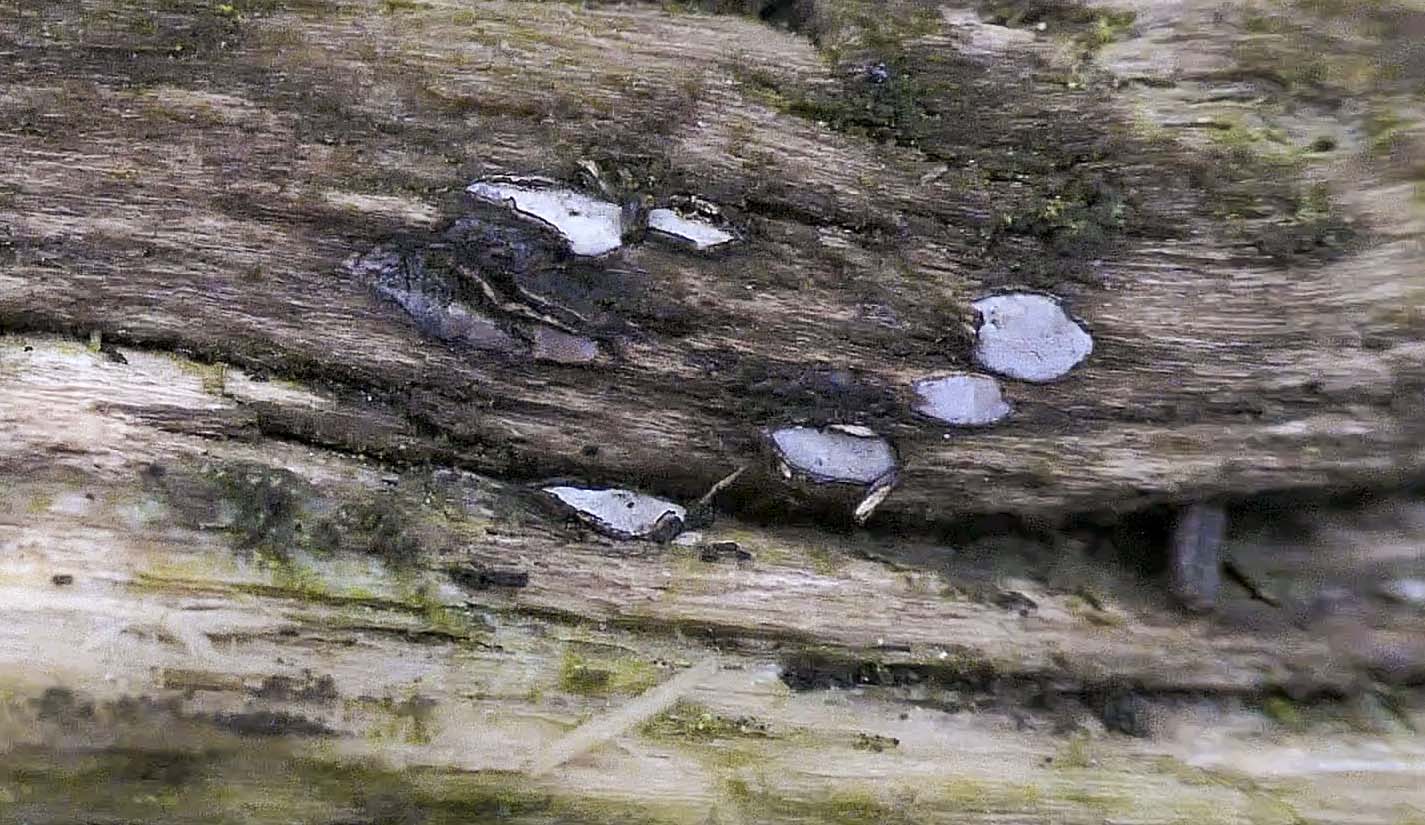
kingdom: Fungi
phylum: Ascomycota
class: Leotiomycetes
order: Chaetomellales
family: Marthamycetaceae
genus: Propolis
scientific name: Propolis farinosa
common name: almindelig vedsprængerskive
